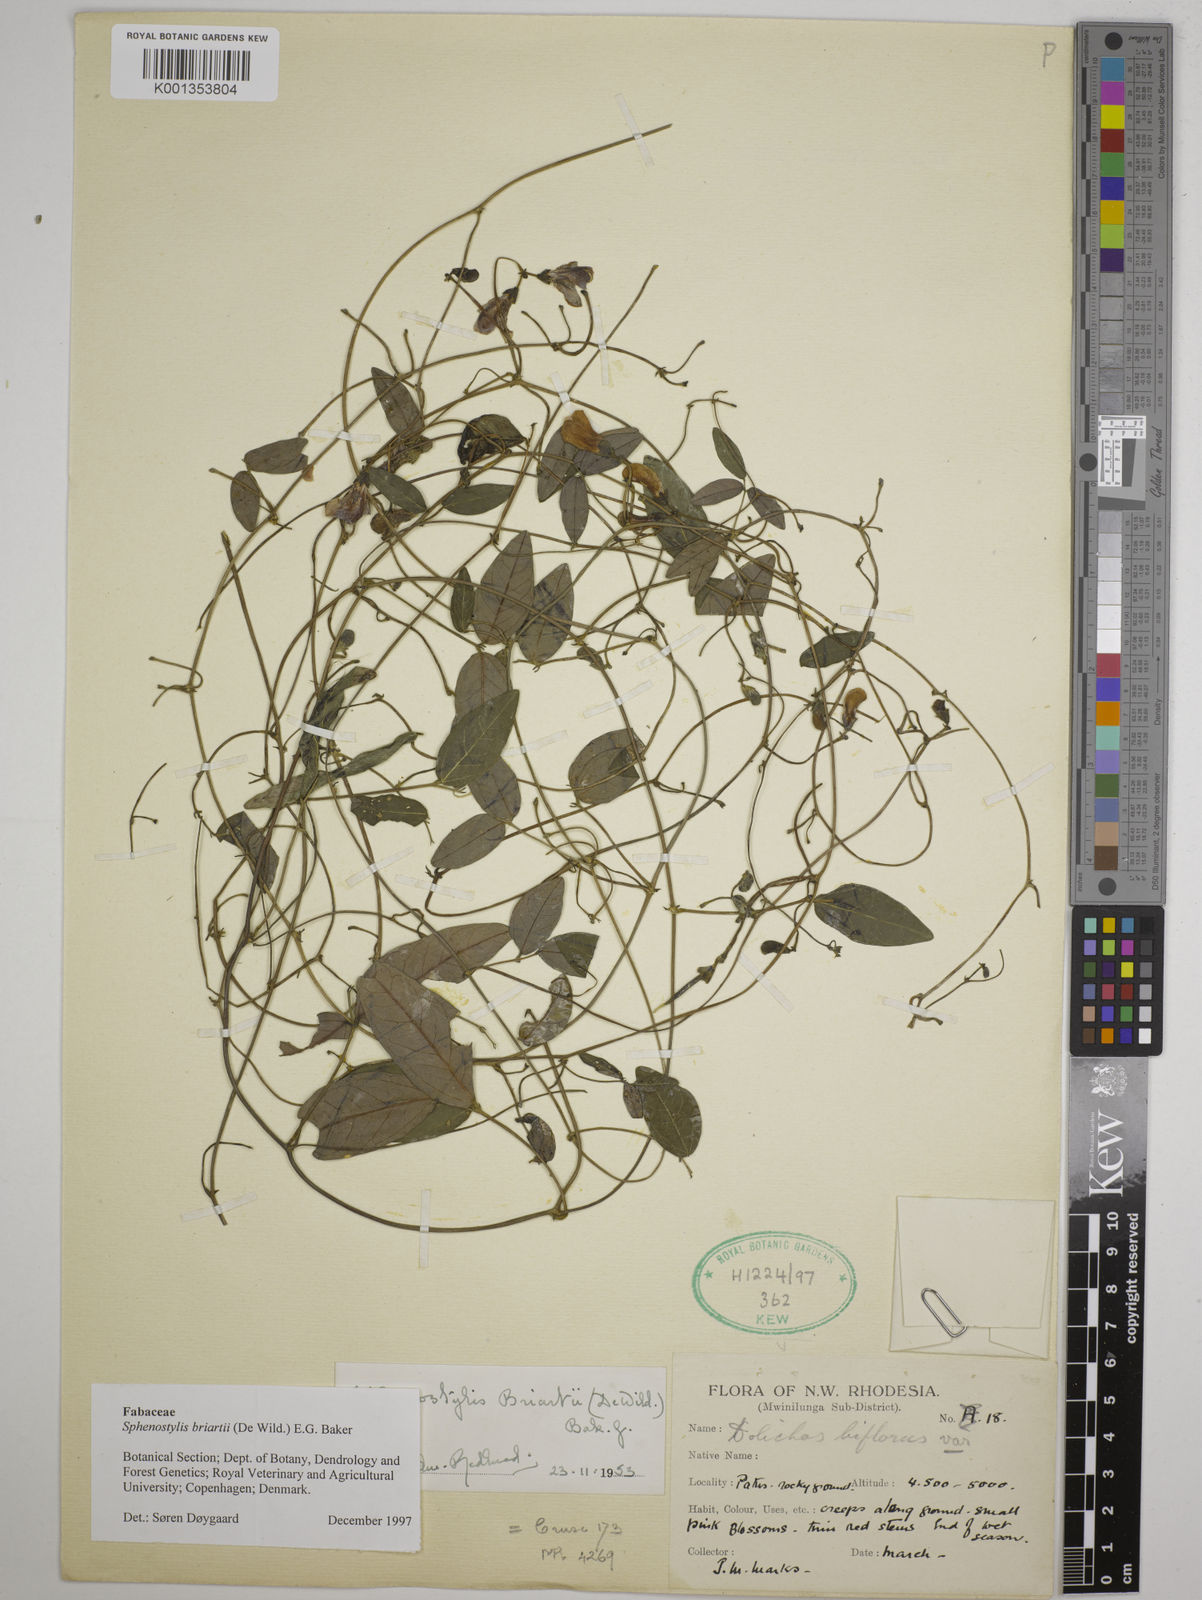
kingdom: Plantae
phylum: Tracheophyta
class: Magnoliopsida
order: Fabales
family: Fabaceae
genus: Sphenostylis
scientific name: Sphenostylis briartii
